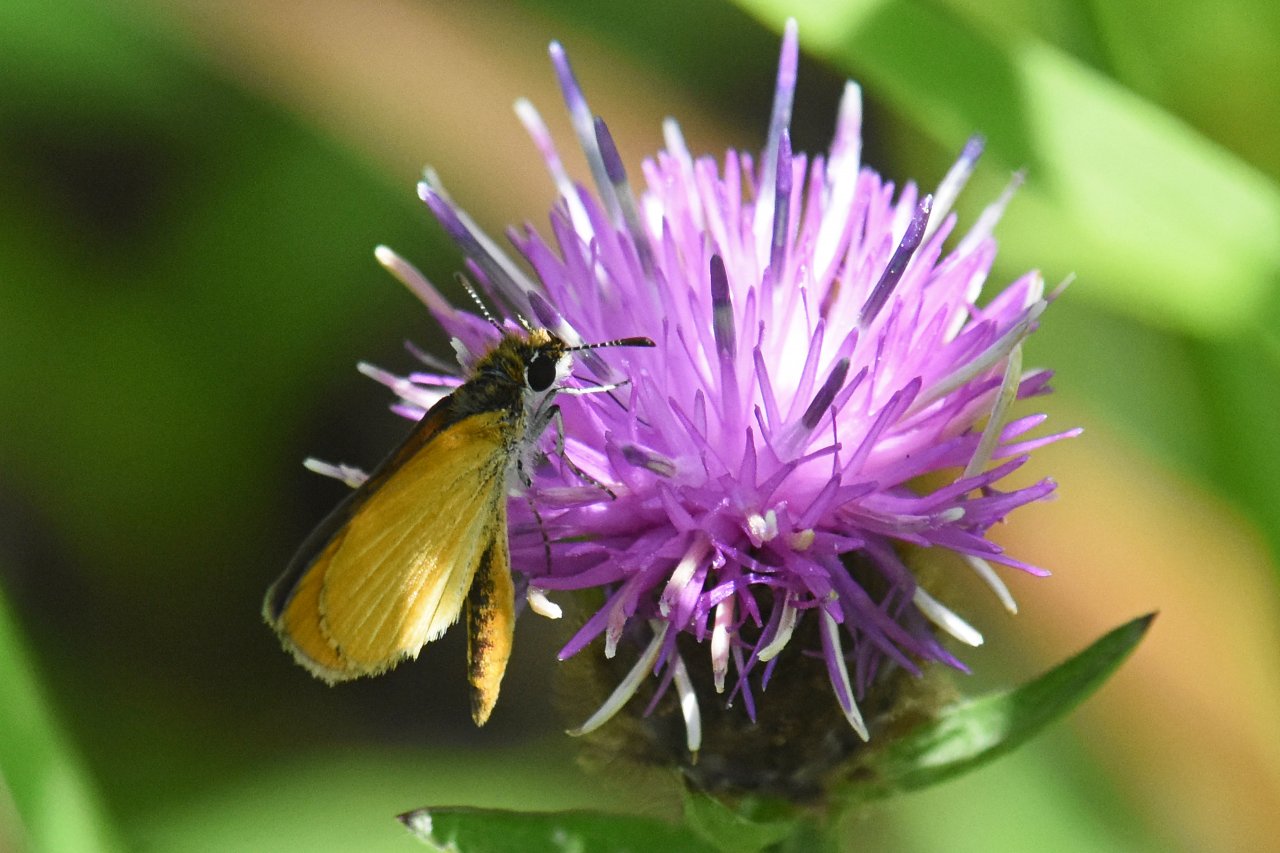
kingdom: Animalia
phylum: Arthropoda
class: Insecta
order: Lepidoptera
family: Hesperiidae
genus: Ancyloxypha
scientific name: Ancyloxypha numitor
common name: Least Skipper
